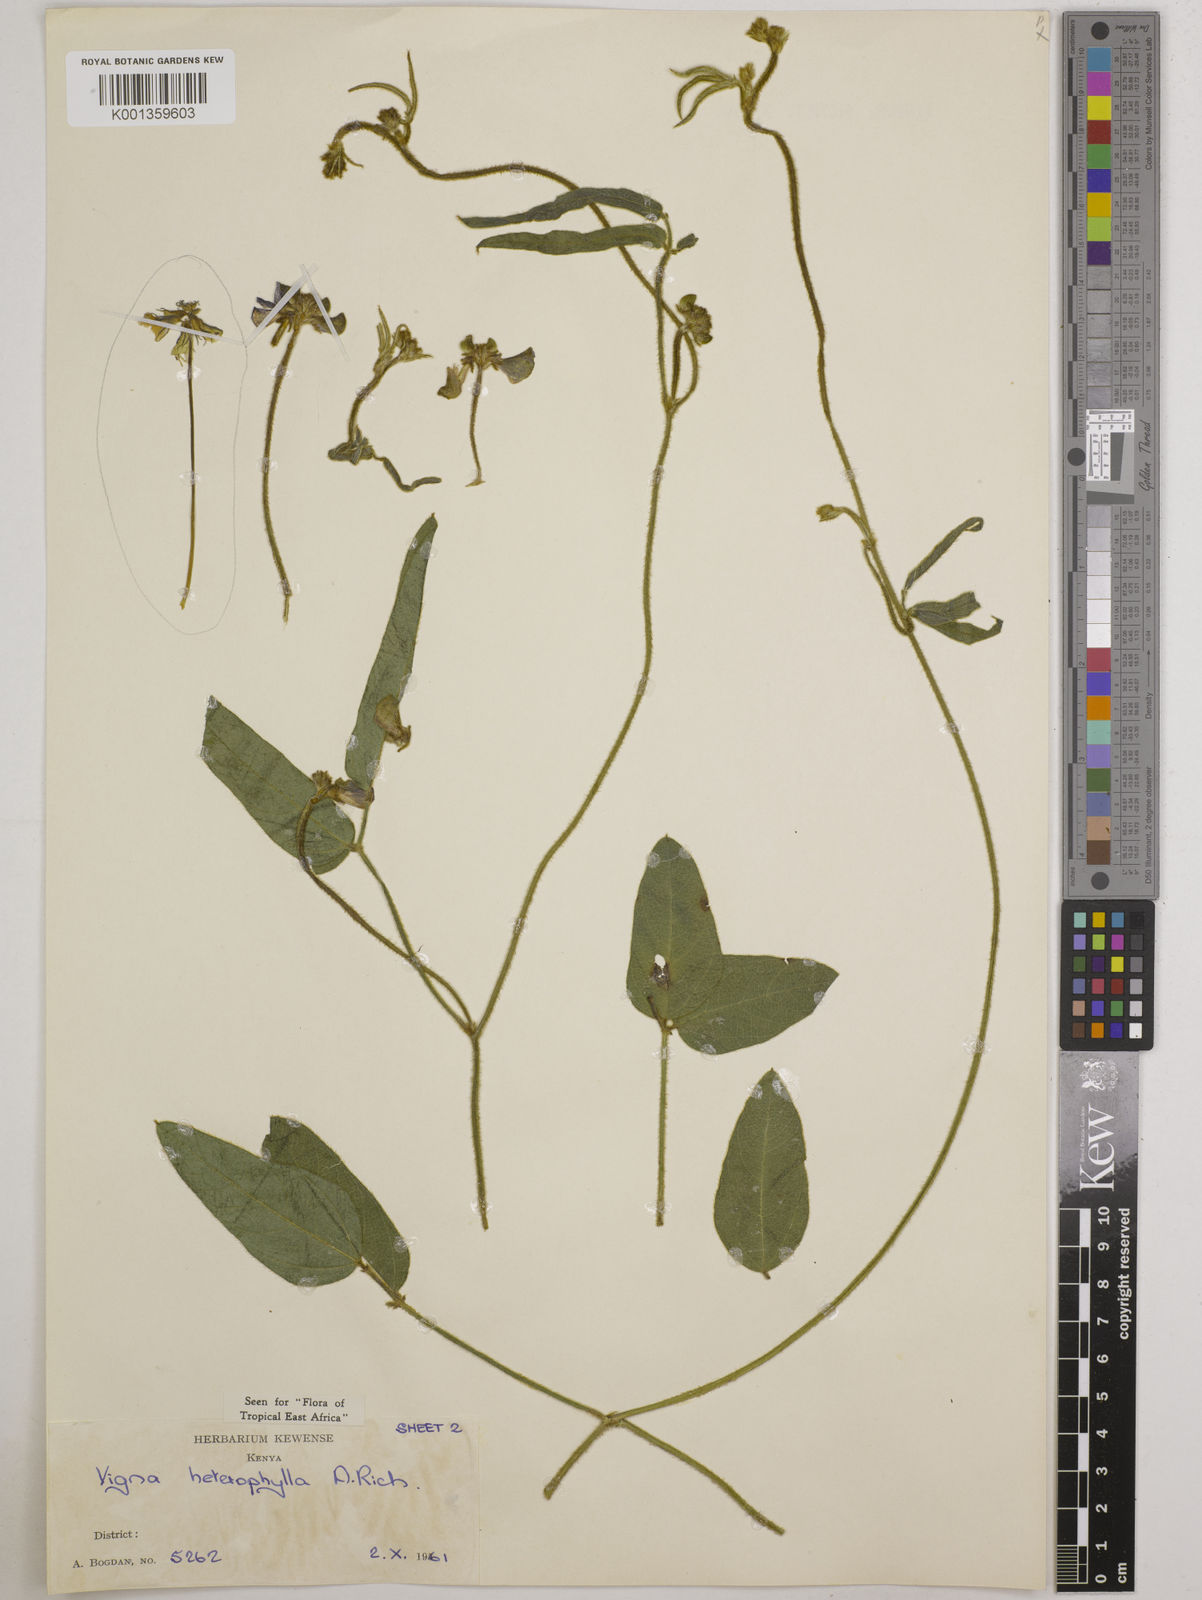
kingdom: Plantae
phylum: Tracheophyta
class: Magnoliopsida
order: Fabales
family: Fabaceae
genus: Vigna
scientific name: Vigna heterophylla
